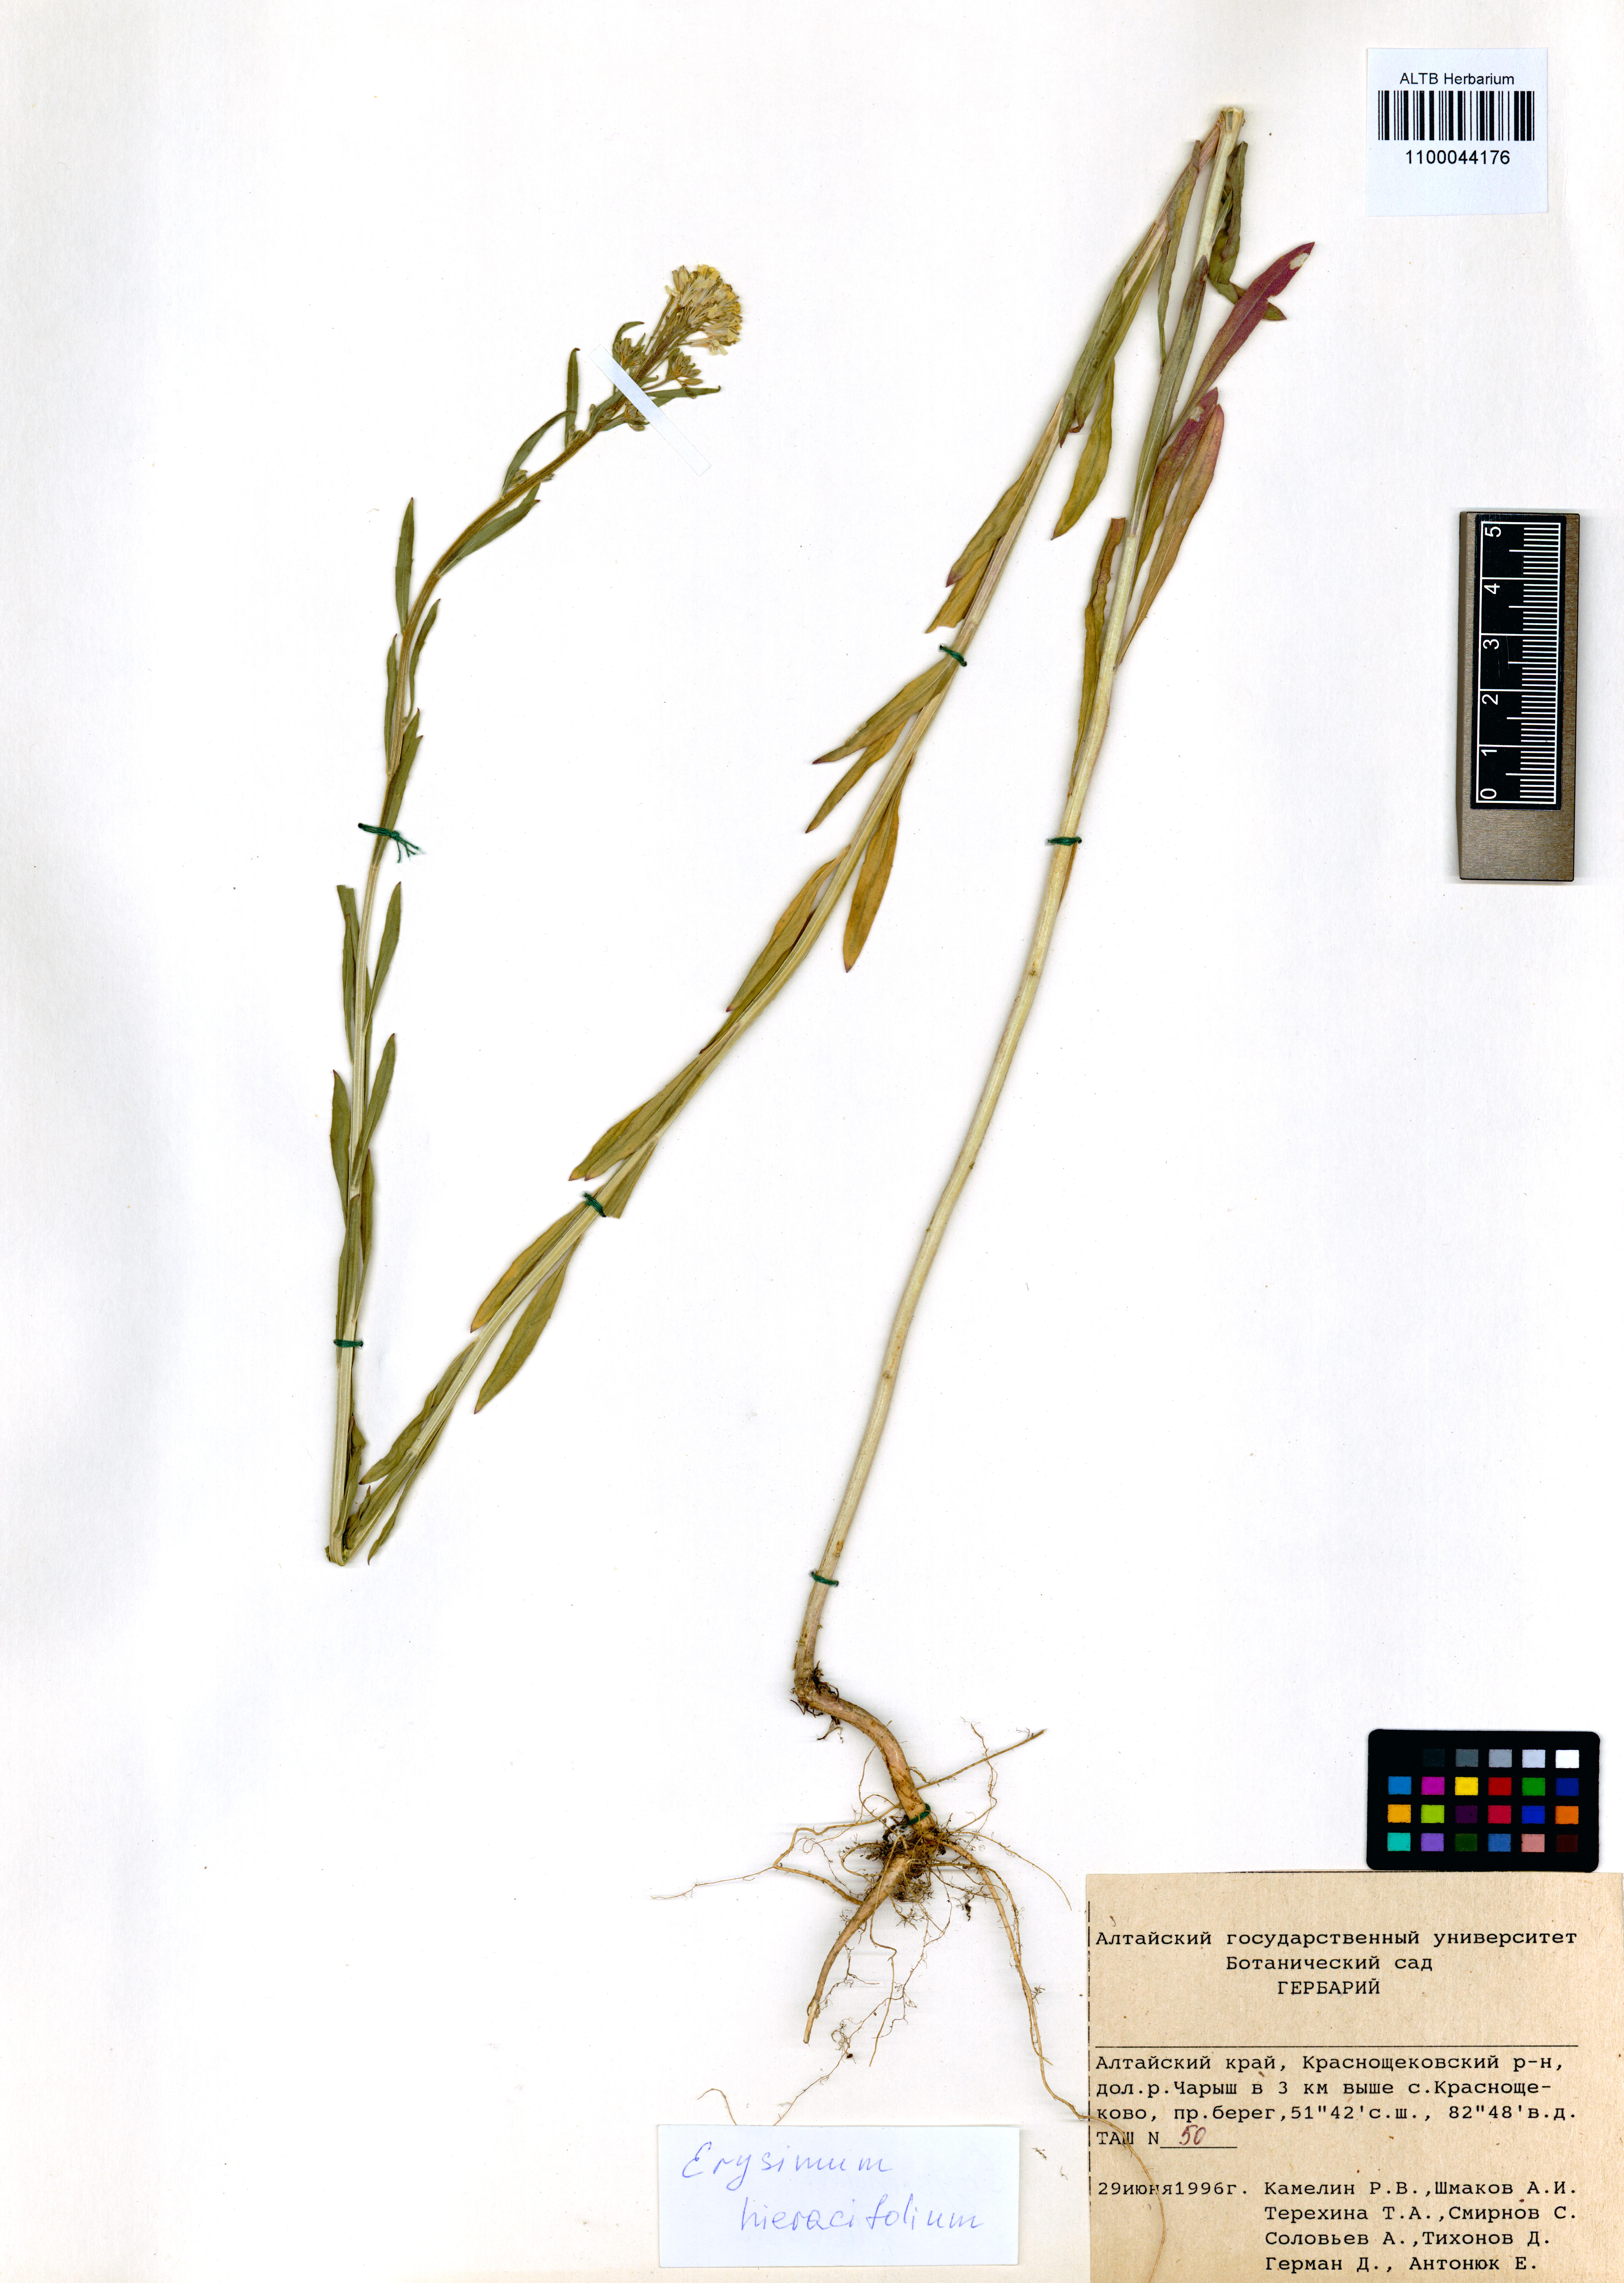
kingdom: Plantae
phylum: Tracheophyta
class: Magnoliopsida
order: Brassicales
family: Brassicaceae
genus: Erysimum
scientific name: Erysimum hieraciifolium
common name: European wallflower
